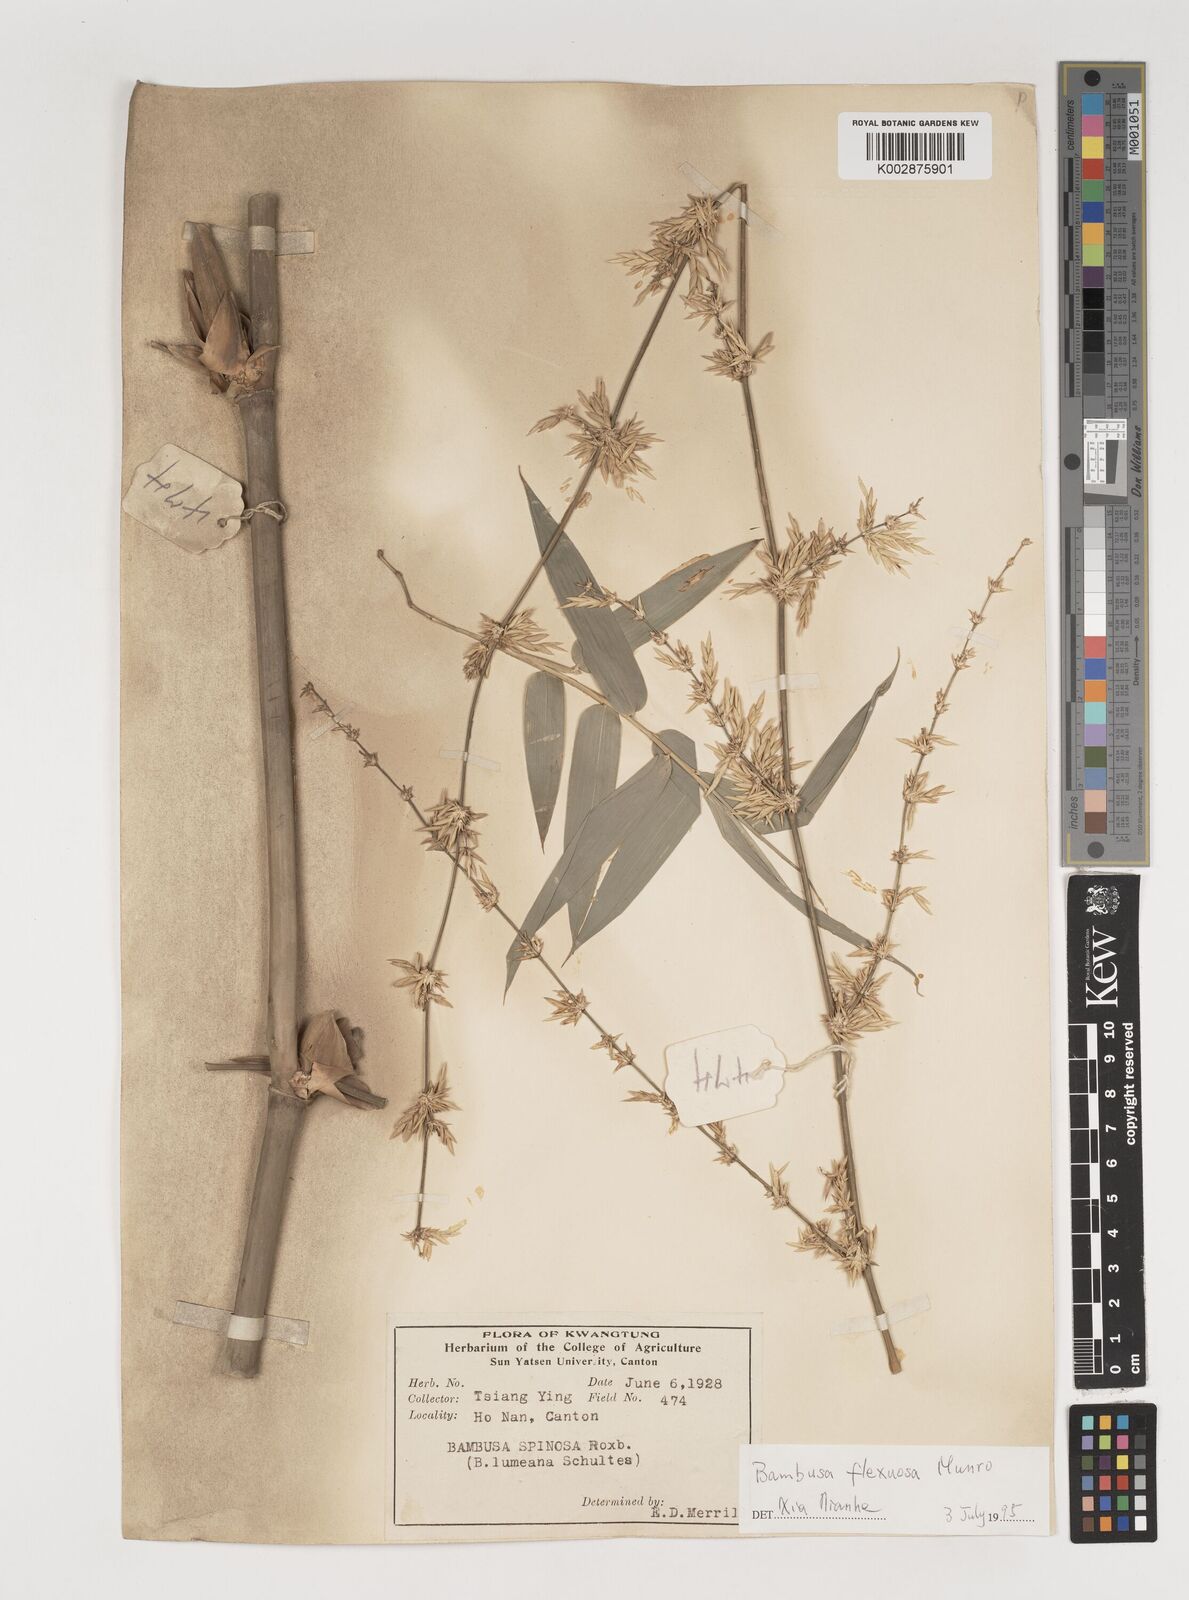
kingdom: Plantae
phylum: Tracheophyta
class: Liliopsida
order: Poales
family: Poaceae
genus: Bambusa
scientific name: Bambusa flexuosa
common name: Lesser thorny bamboo
